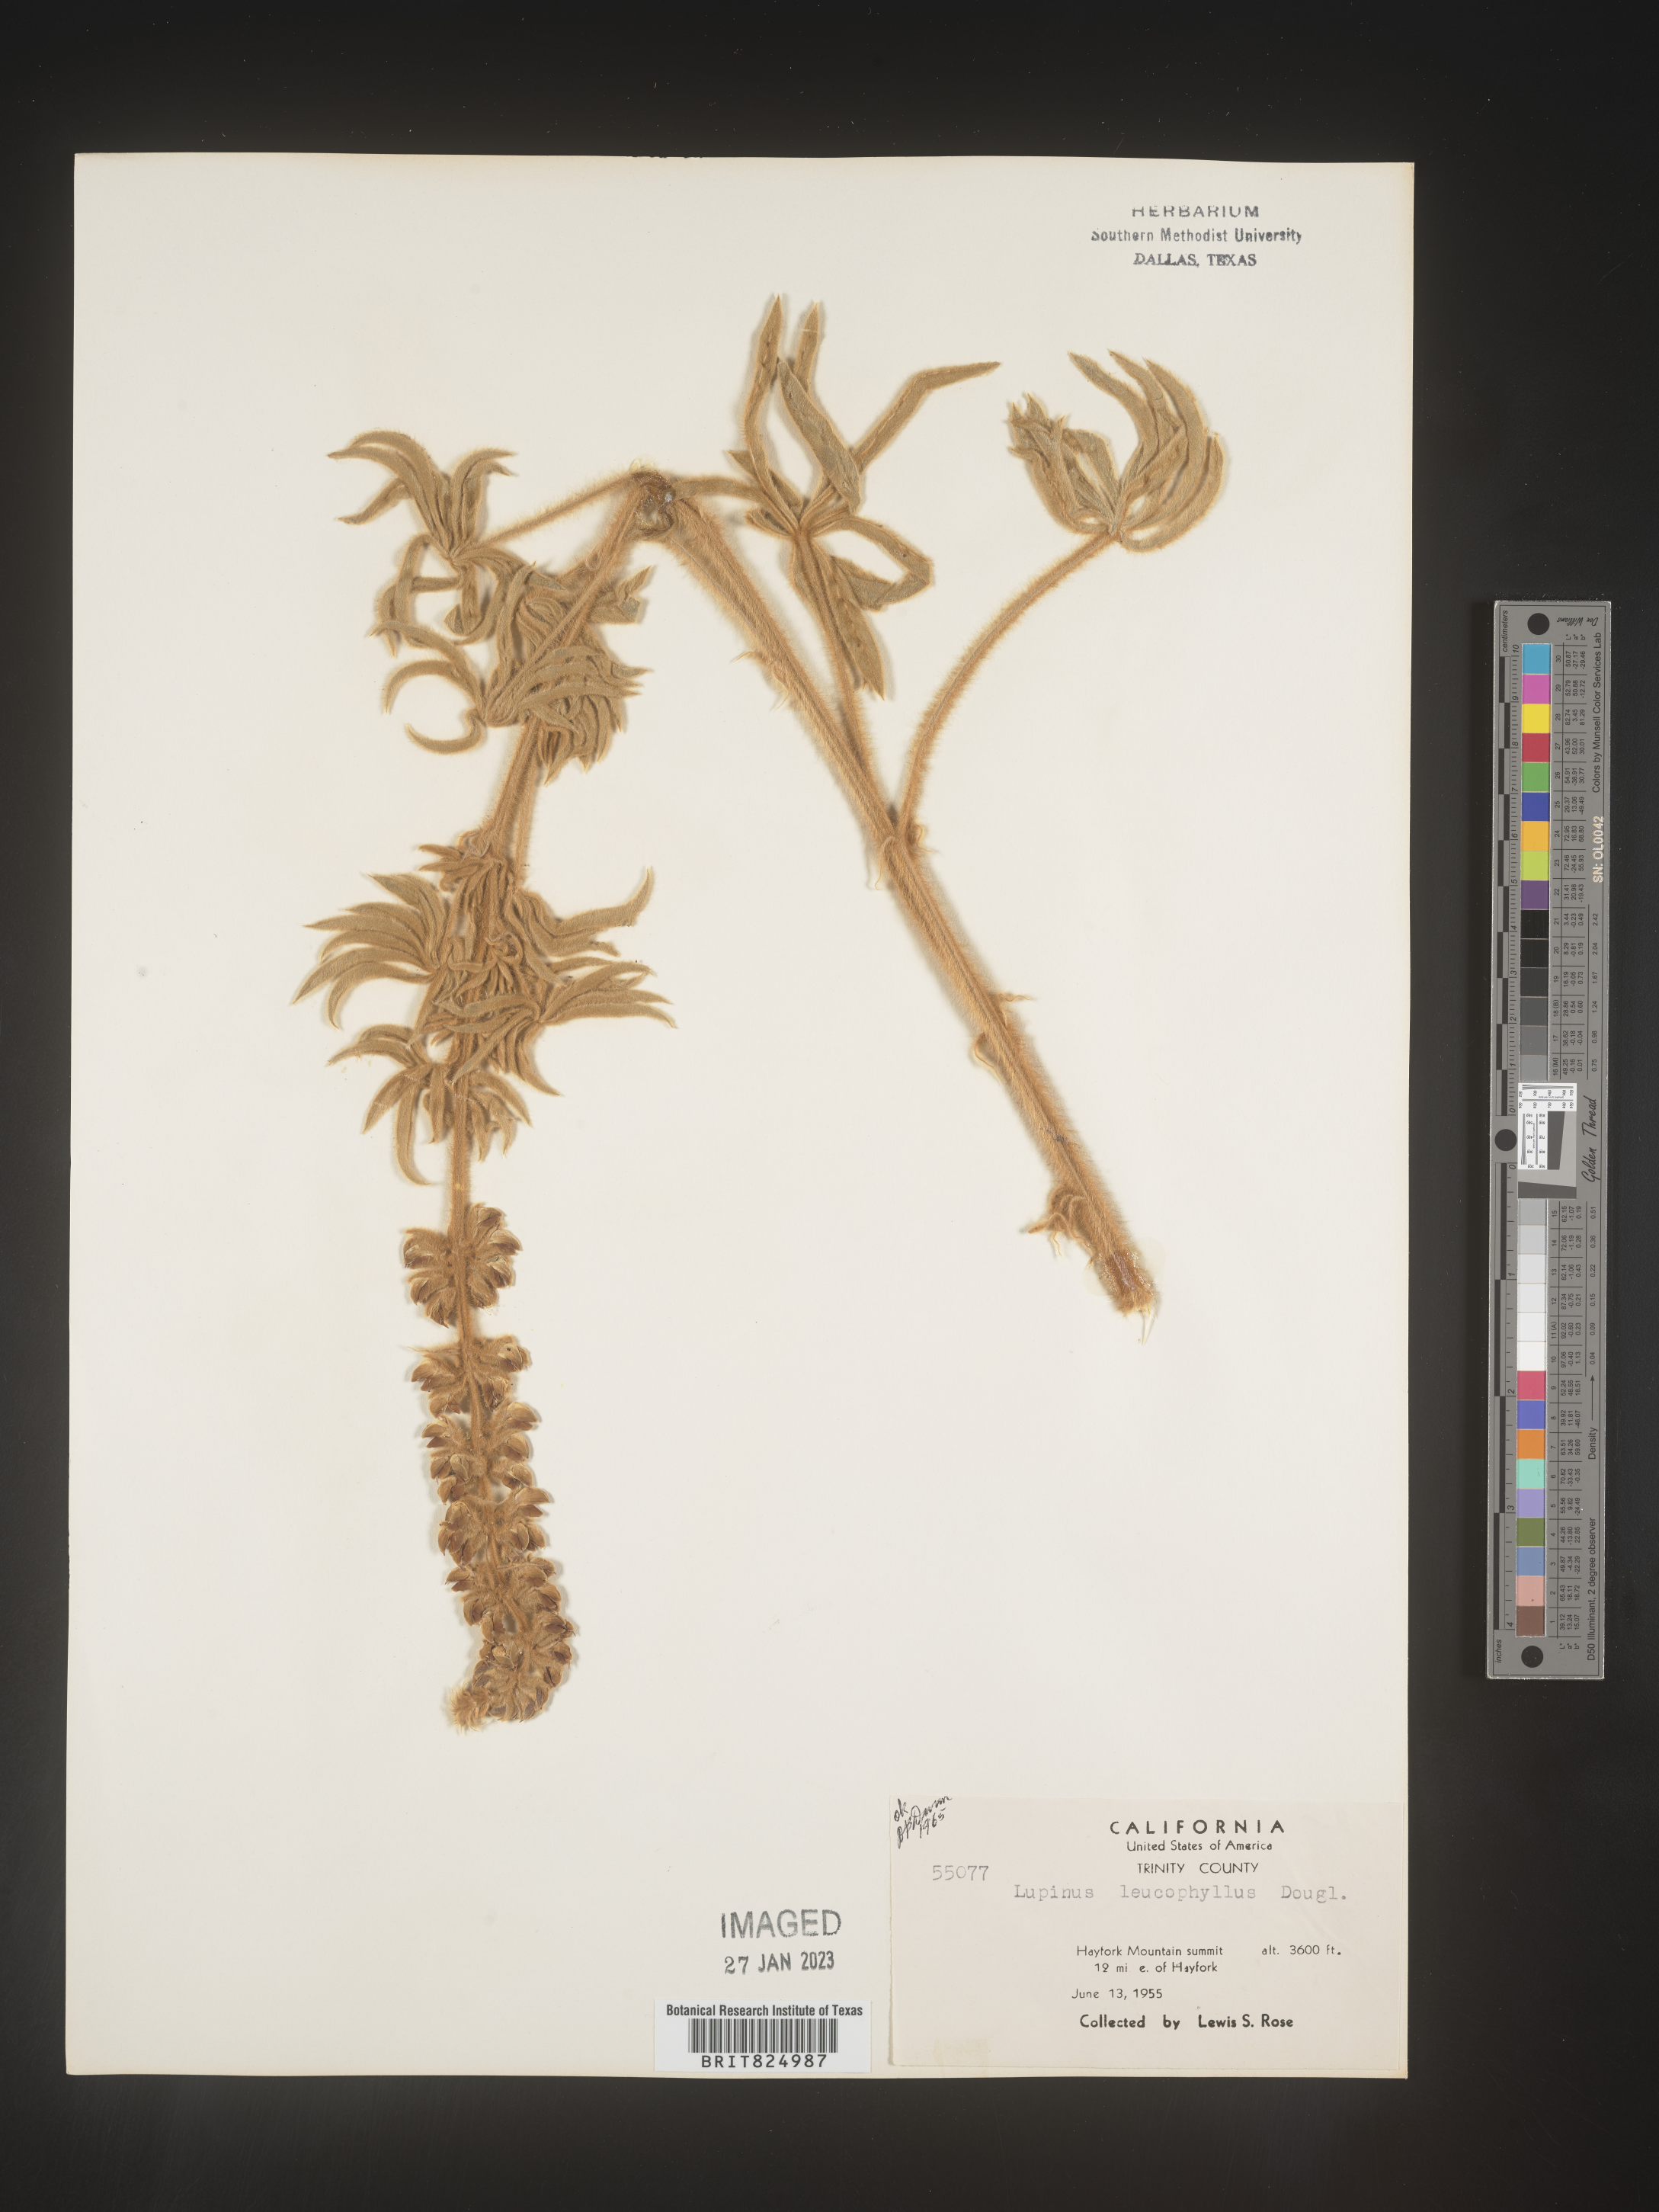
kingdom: Plantae
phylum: Tracheophyta
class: Magnoliopsida
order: Fabales
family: Fabaceae
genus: Lupinus
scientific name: Lupinus
